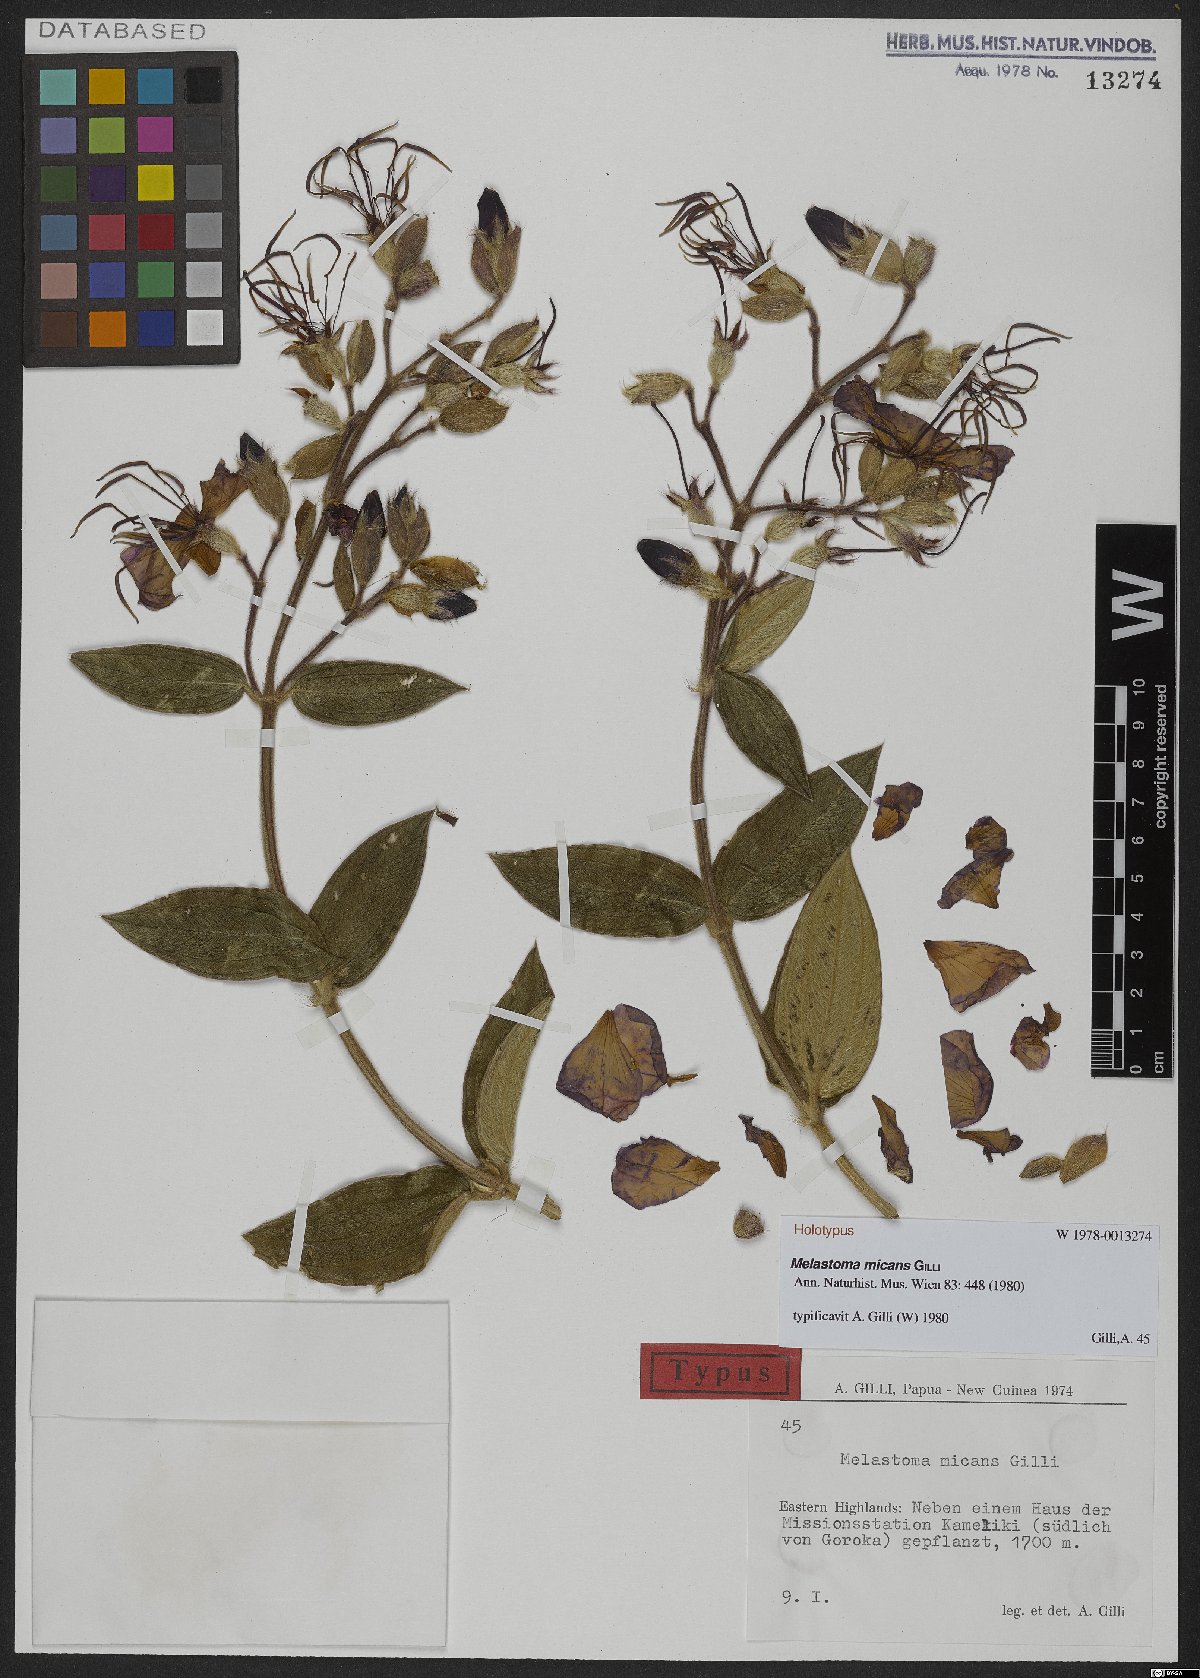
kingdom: Plantae
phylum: Tracheophyta
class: Magnoliopsida
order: Myrtales
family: Melastomataceae
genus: Melastoma
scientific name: Melastoma micans
